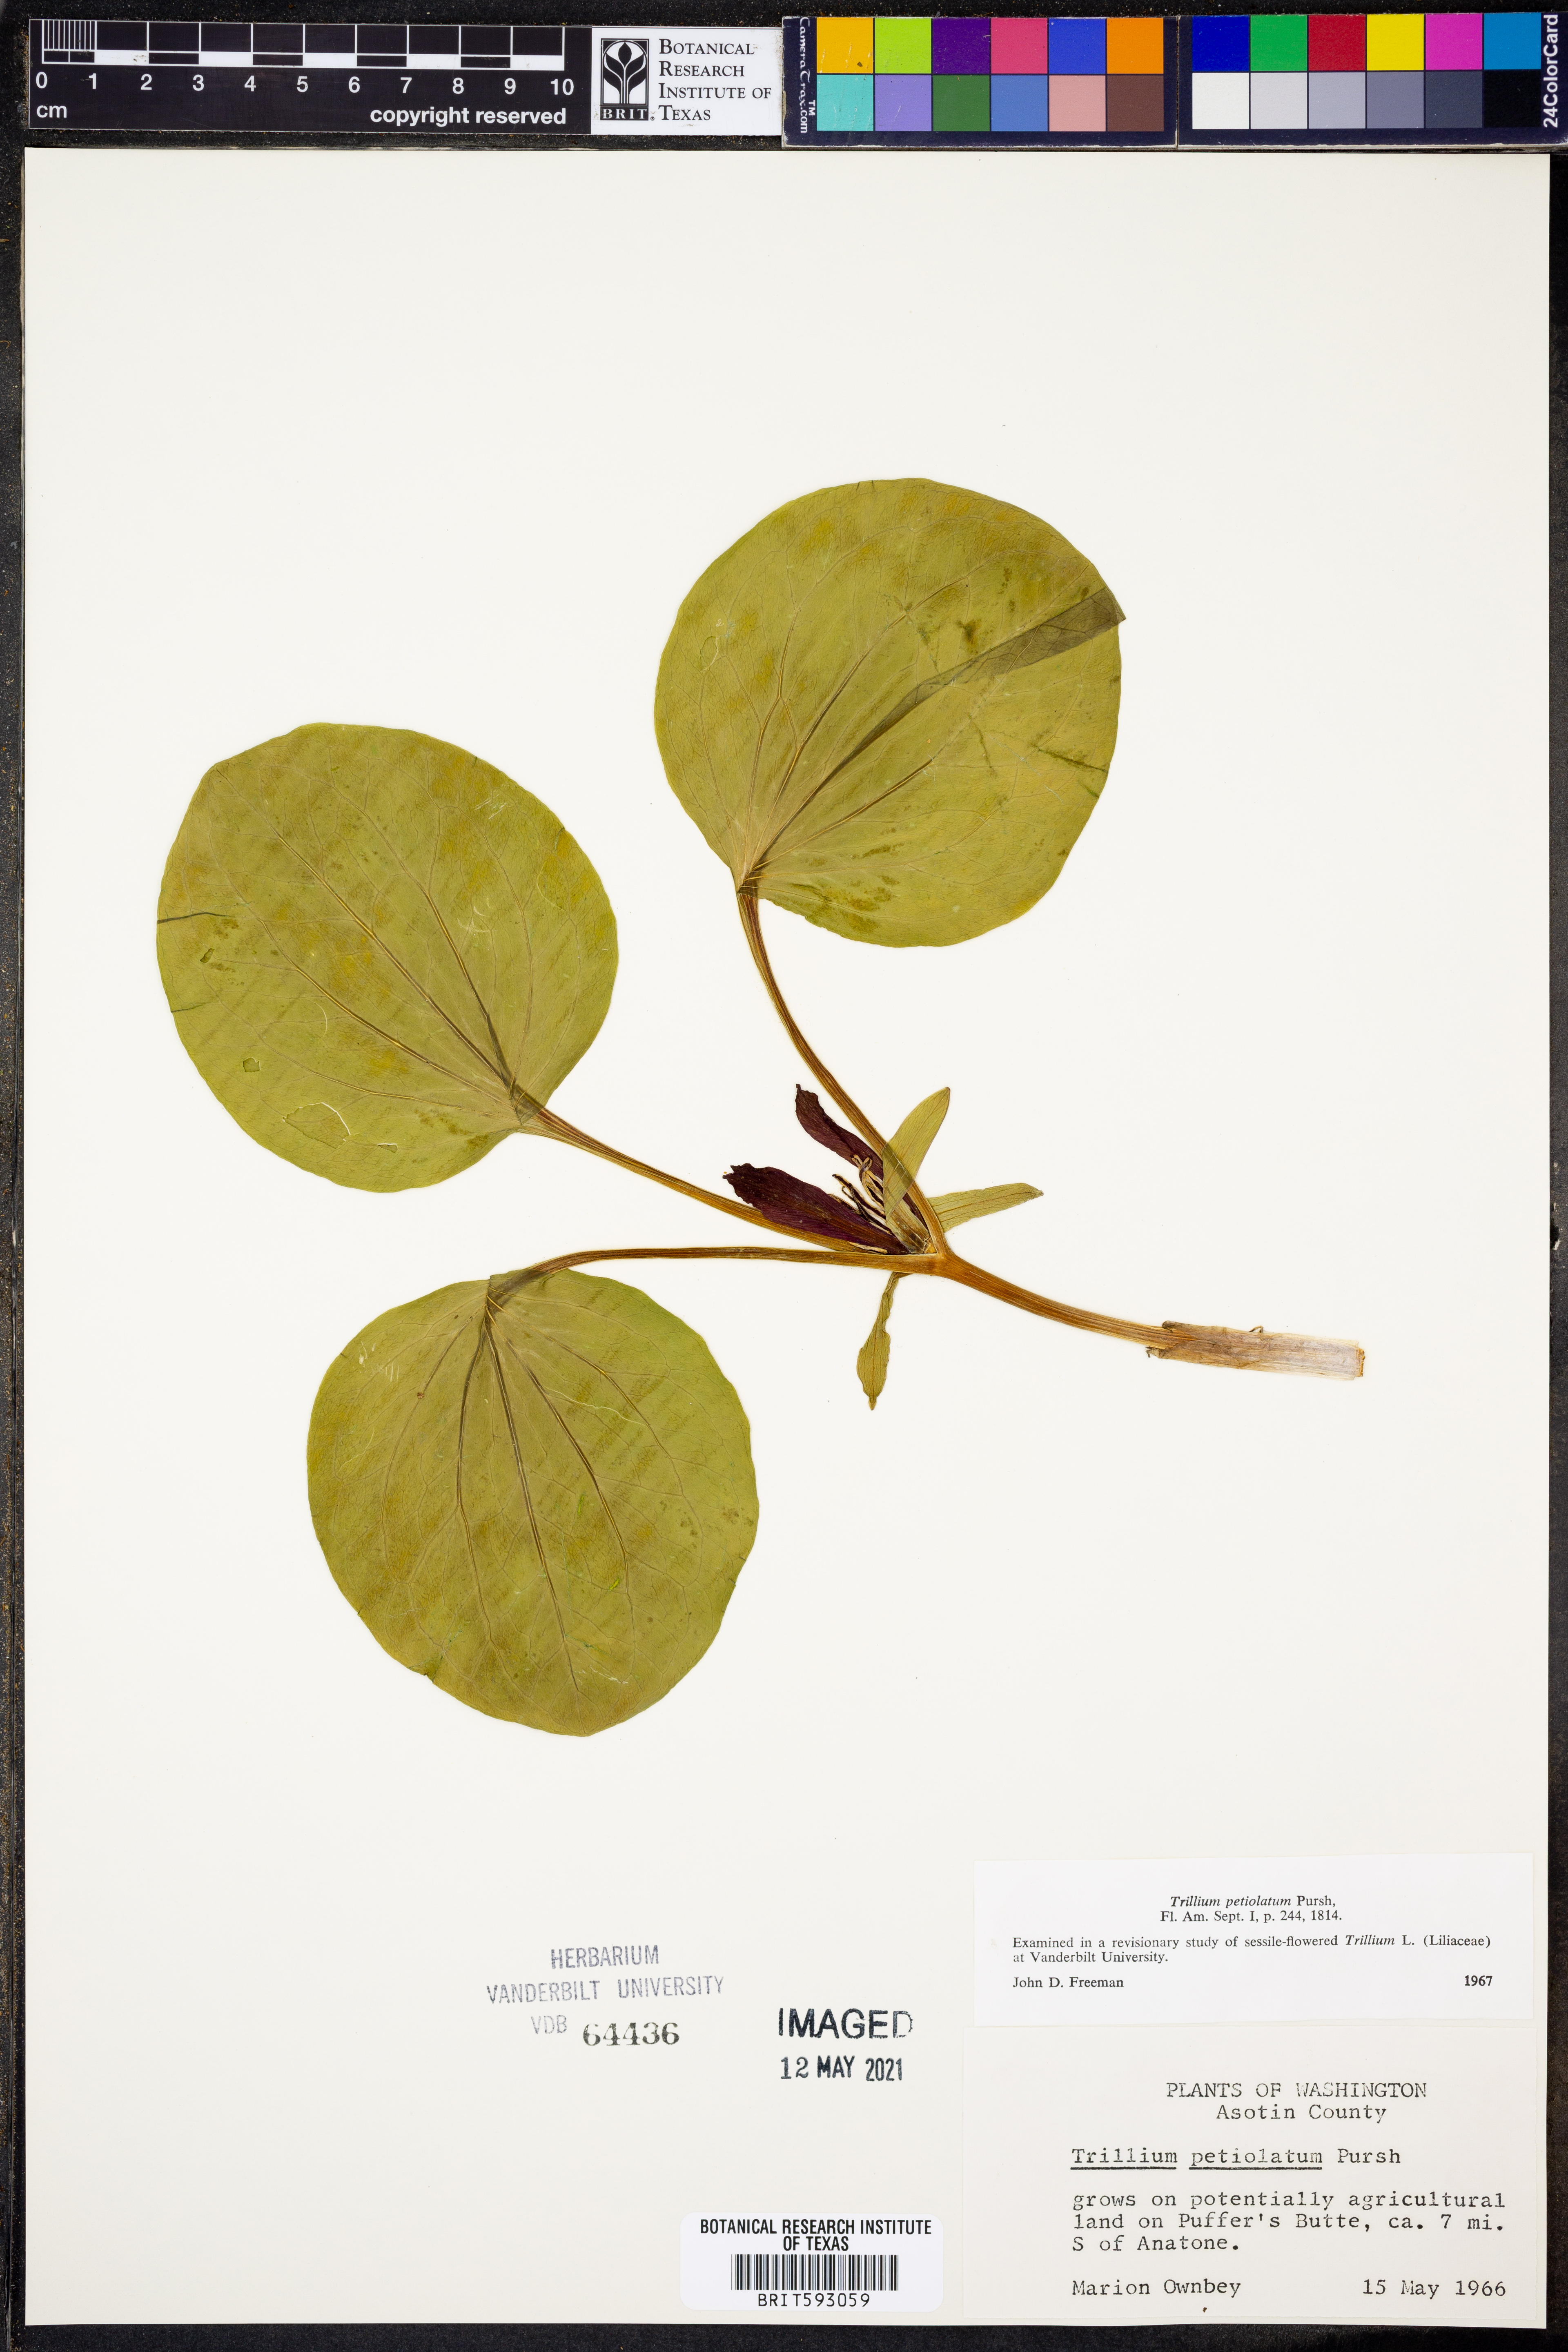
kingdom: Plantae
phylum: Tracheophyta
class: Liliopsida
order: Liliales
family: Melanthiaceae
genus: Trillium
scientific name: Trillium petiolatum
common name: Idaho trillium
